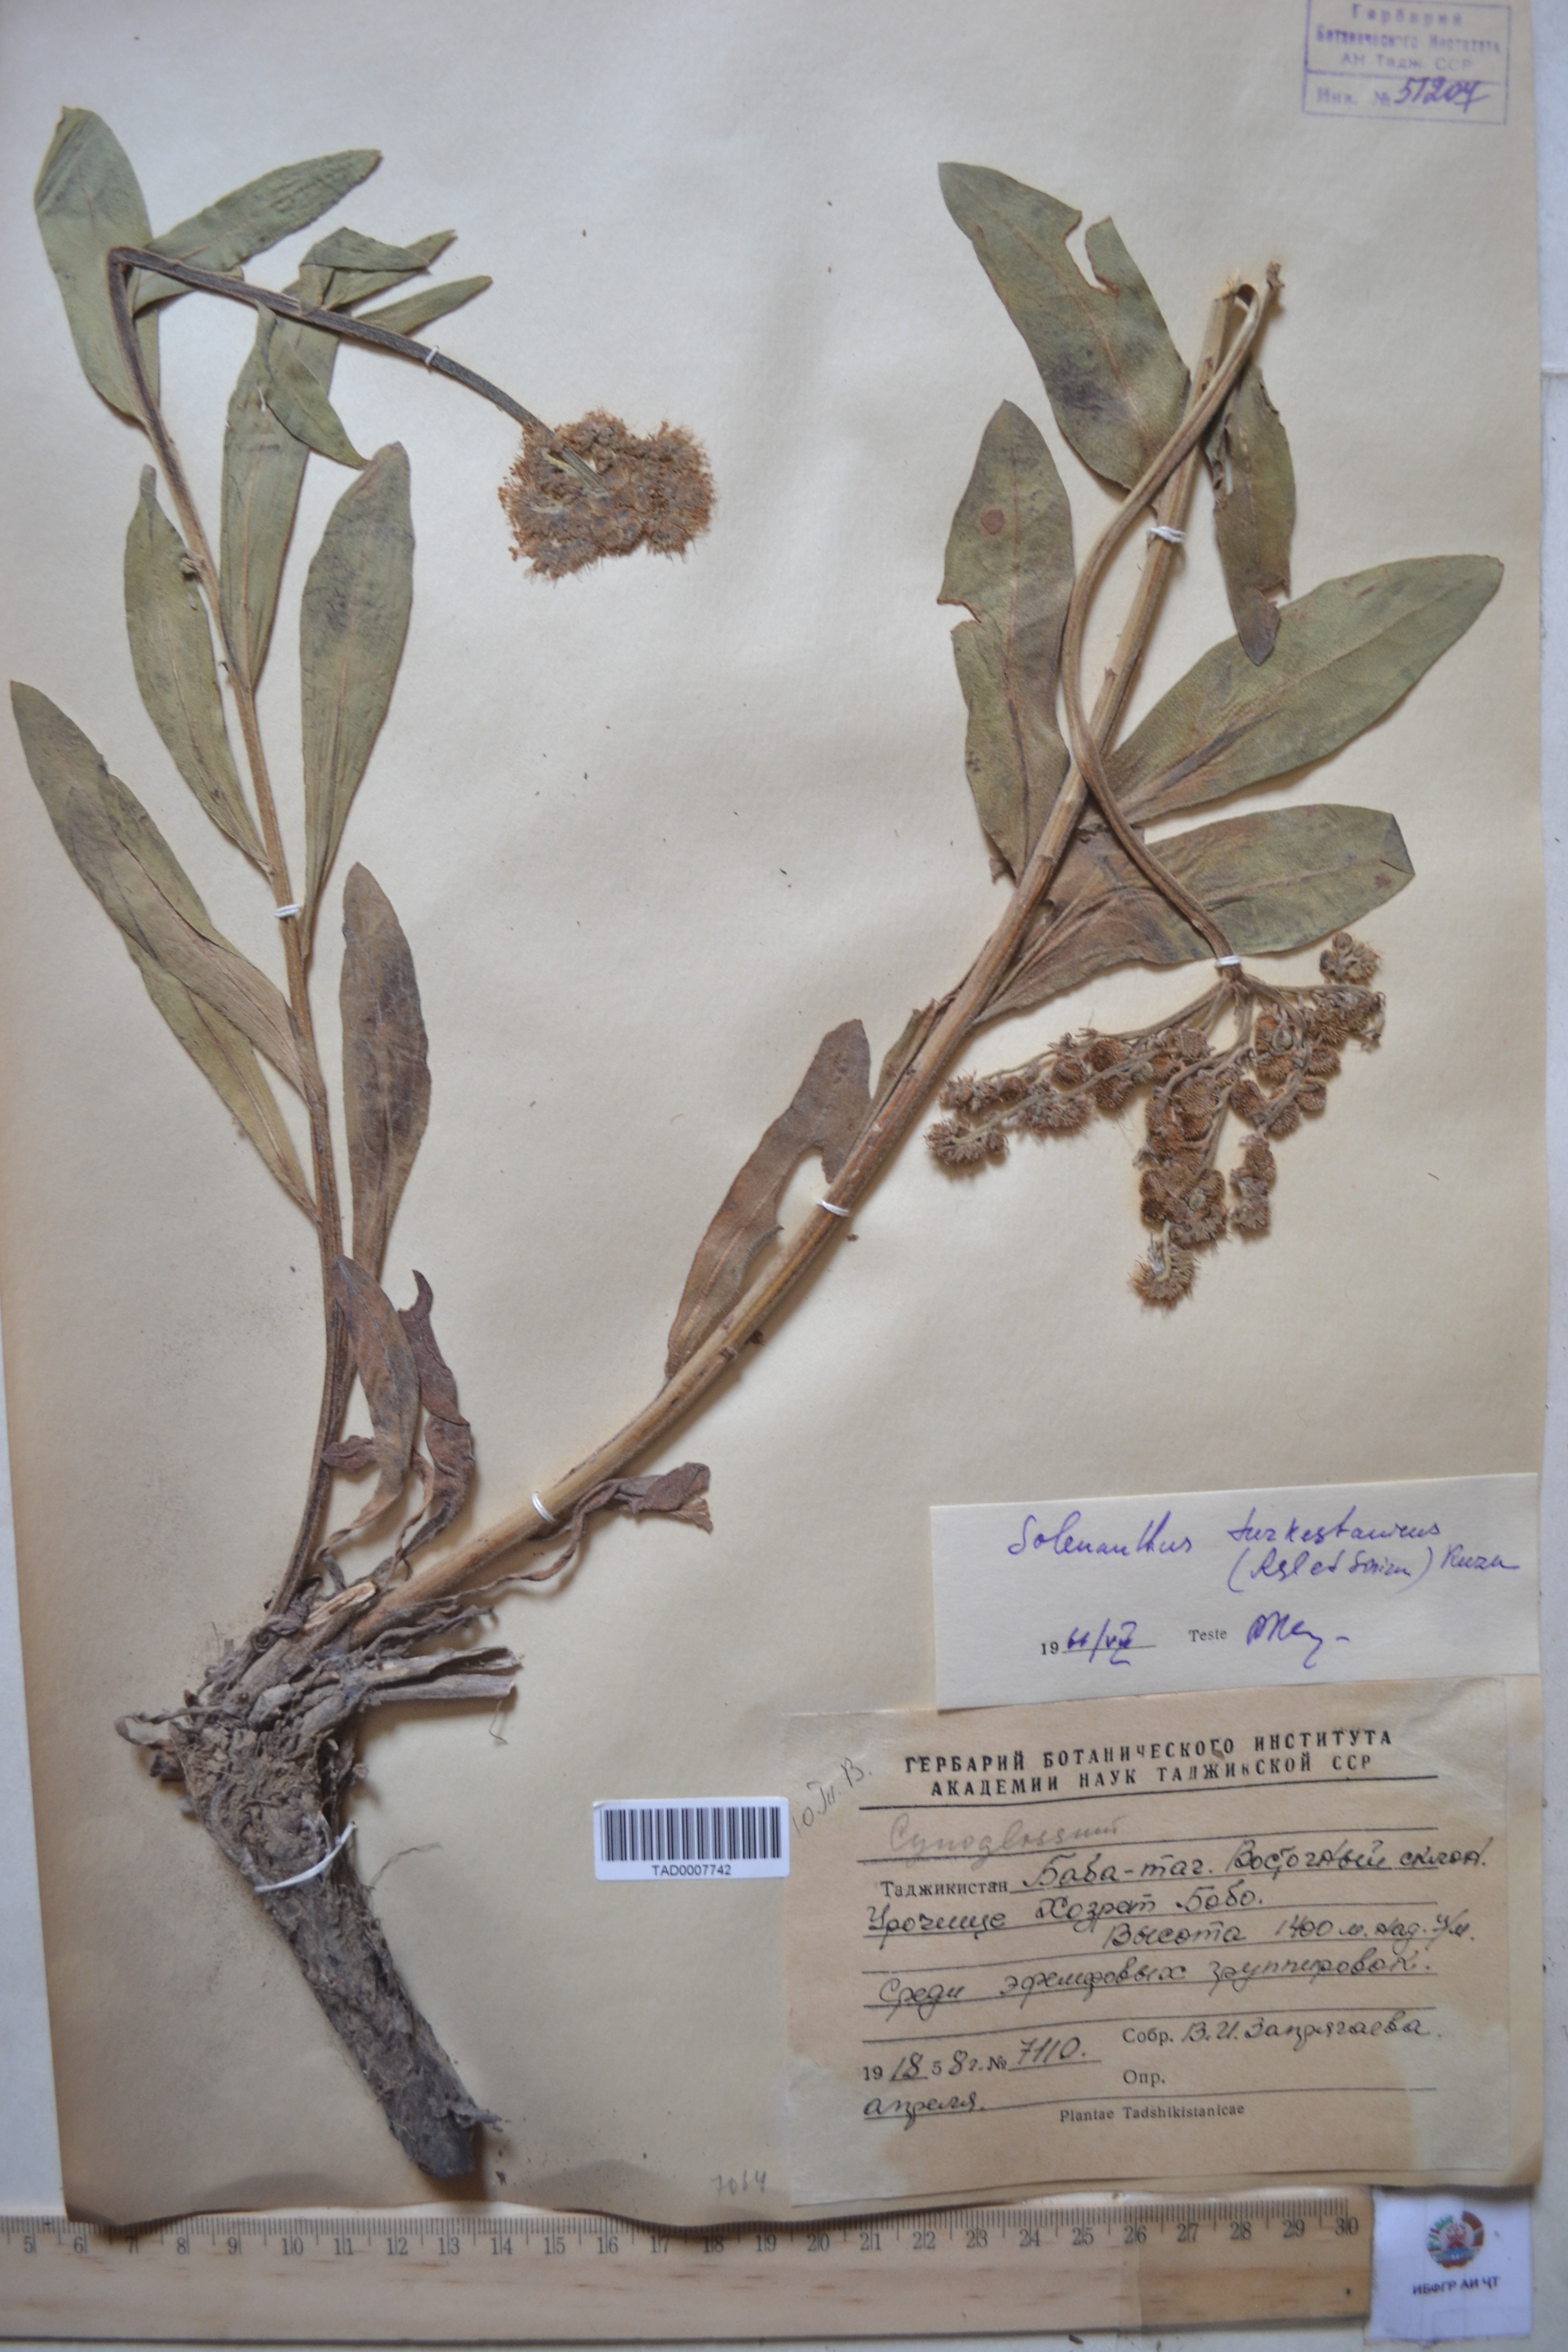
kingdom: Plantae
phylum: Tracheophyta
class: Magnoliopsida
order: Boraginales
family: Boraginaceae
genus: Solenanthus
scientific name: Solenanthus turkestanicus
